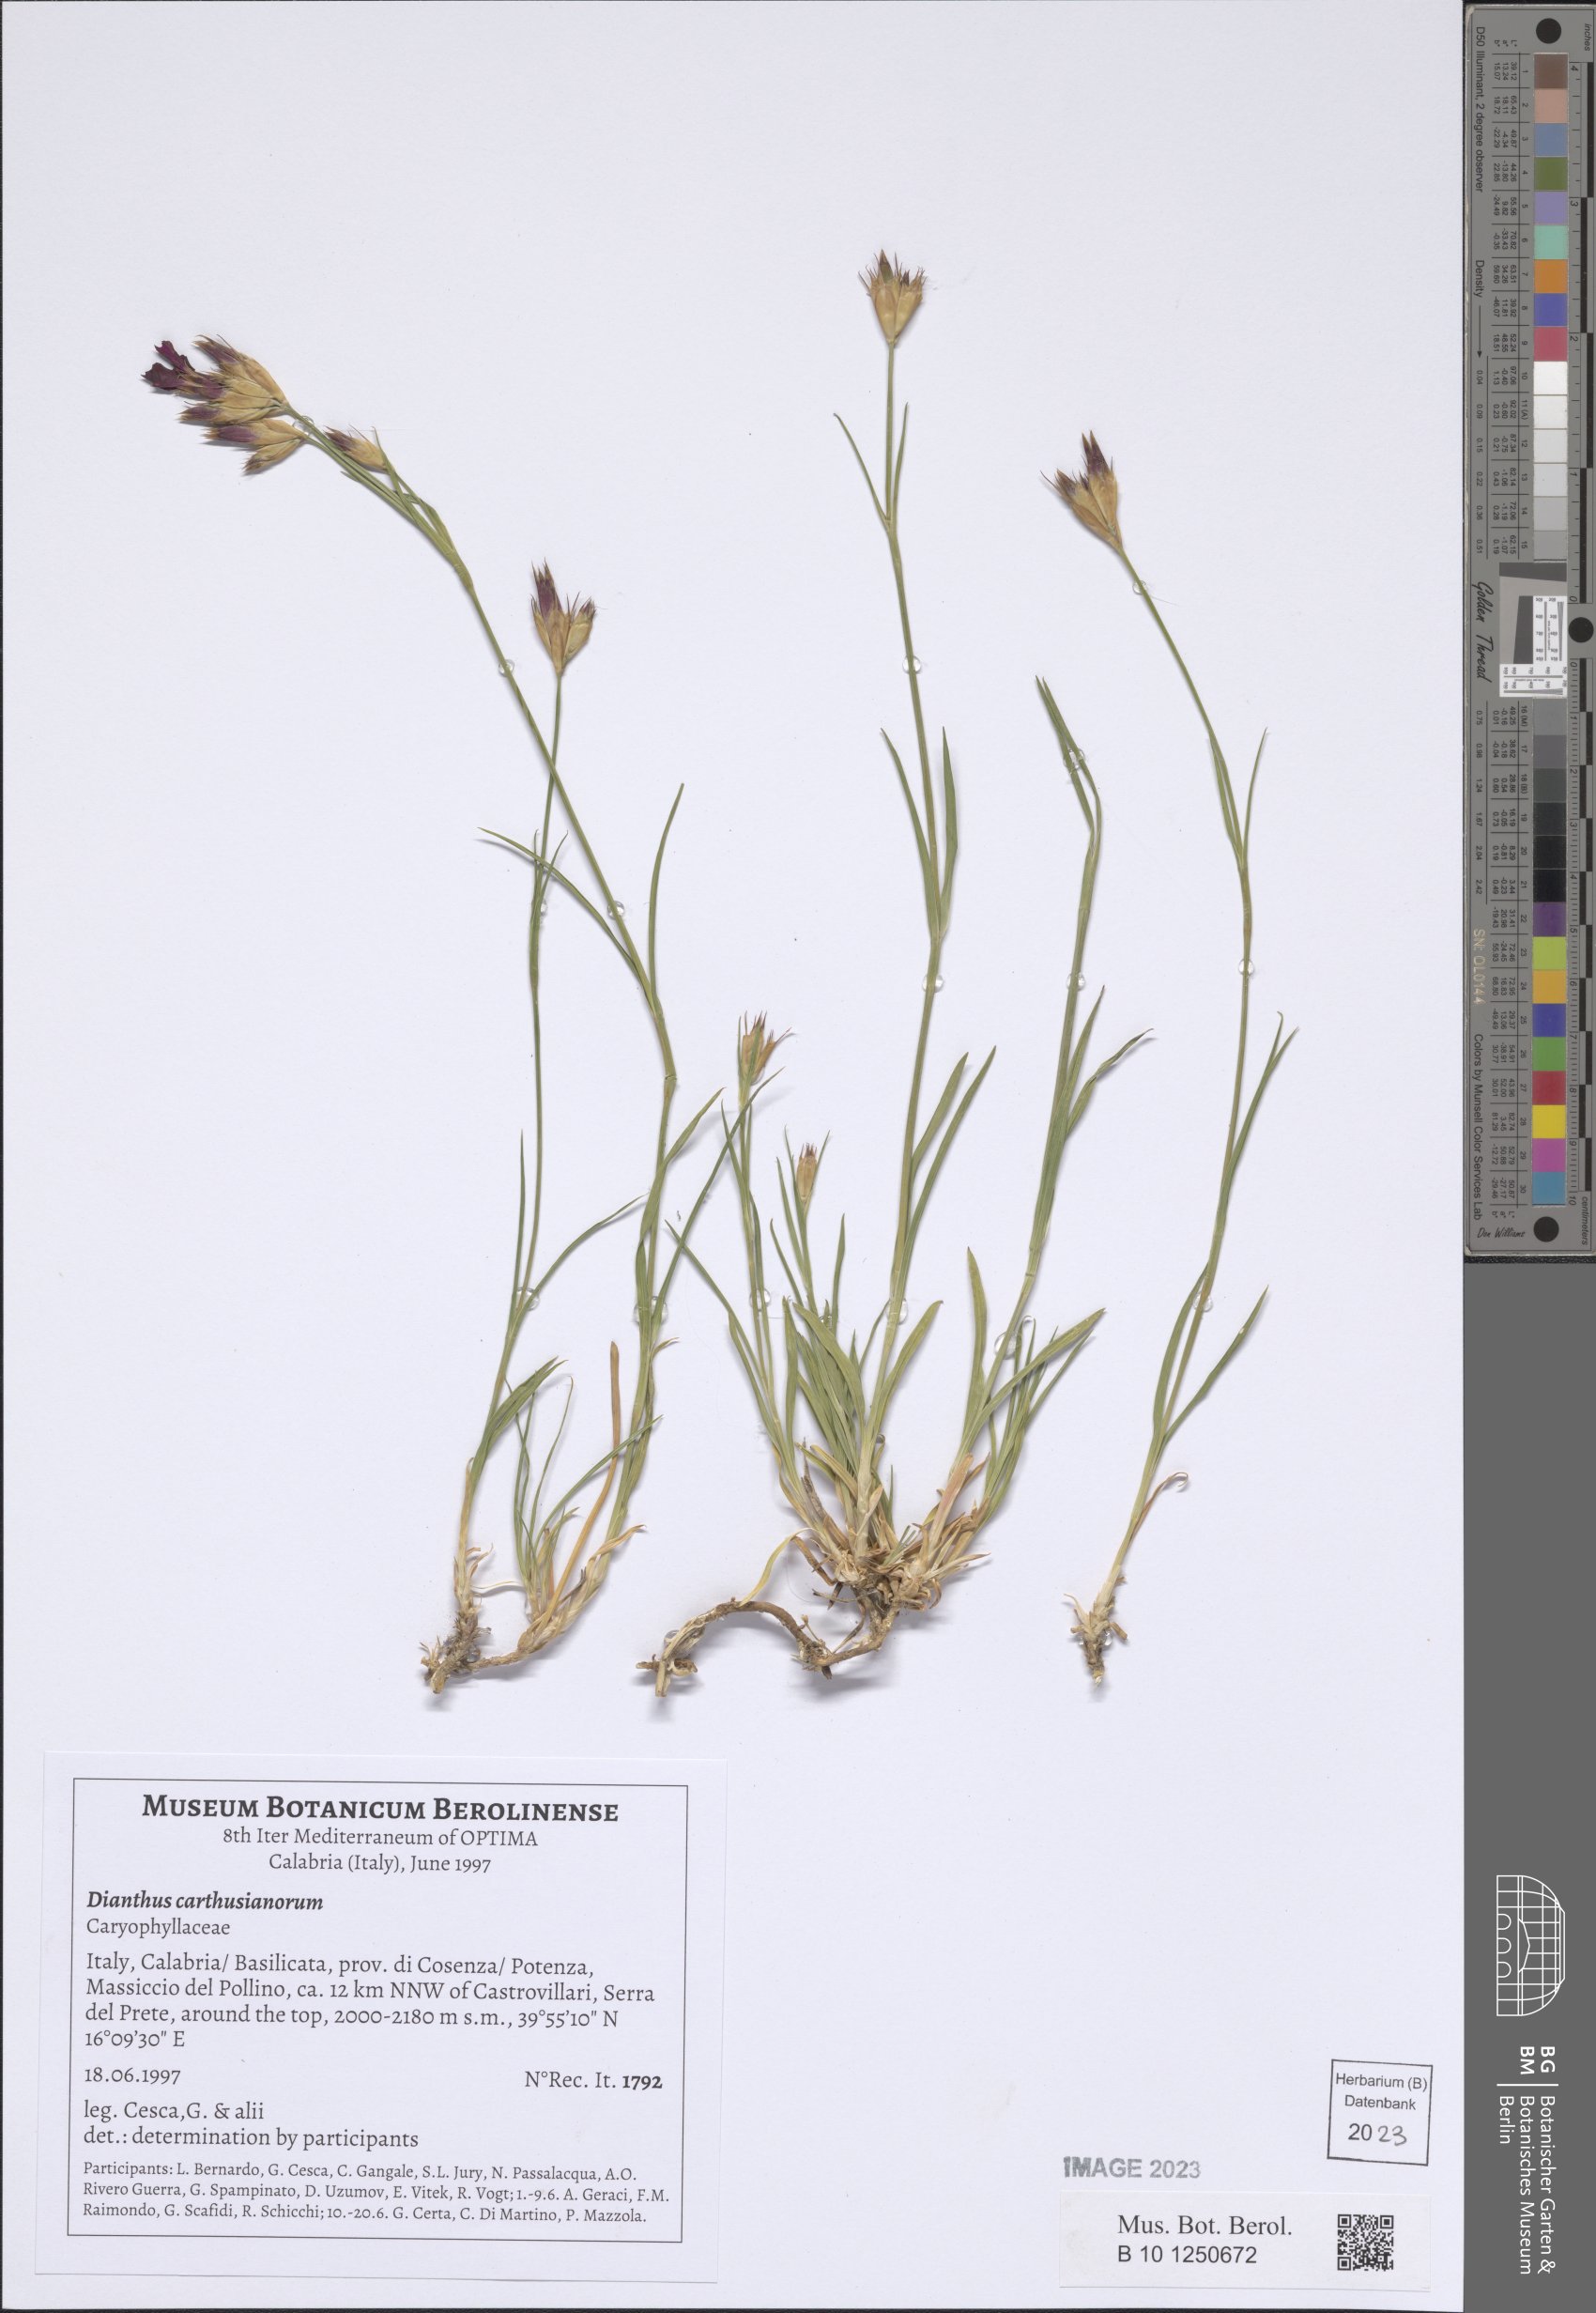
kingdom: Plantae
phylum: Tracheophyta
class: Magnoliopsida
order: Caryophyllales
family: Caryophyllaceae
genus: Dianthus
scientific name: Dianthus carthusianorum
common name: Carthusian pink
